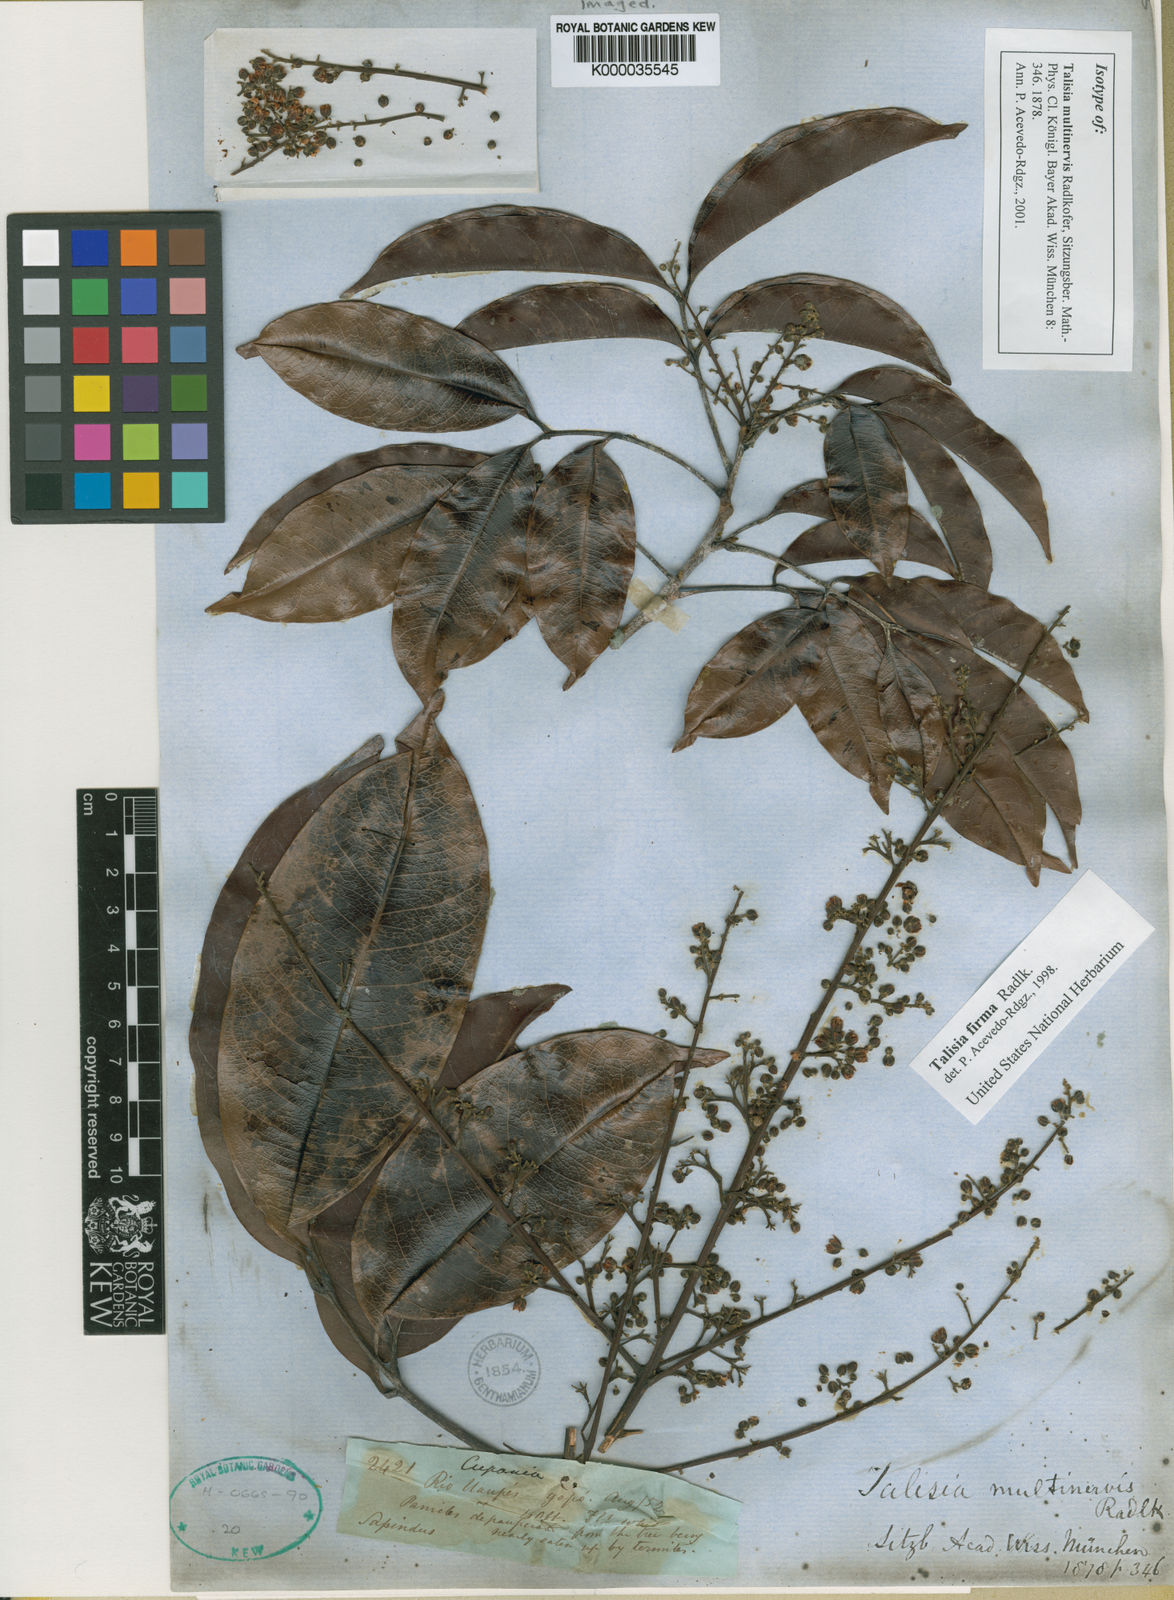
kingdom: Plantae
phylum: Tracheophyta
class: Magnoliopsida
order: Sapindales
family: Sapindaceae
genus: Talisia
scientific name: Talisia firma
